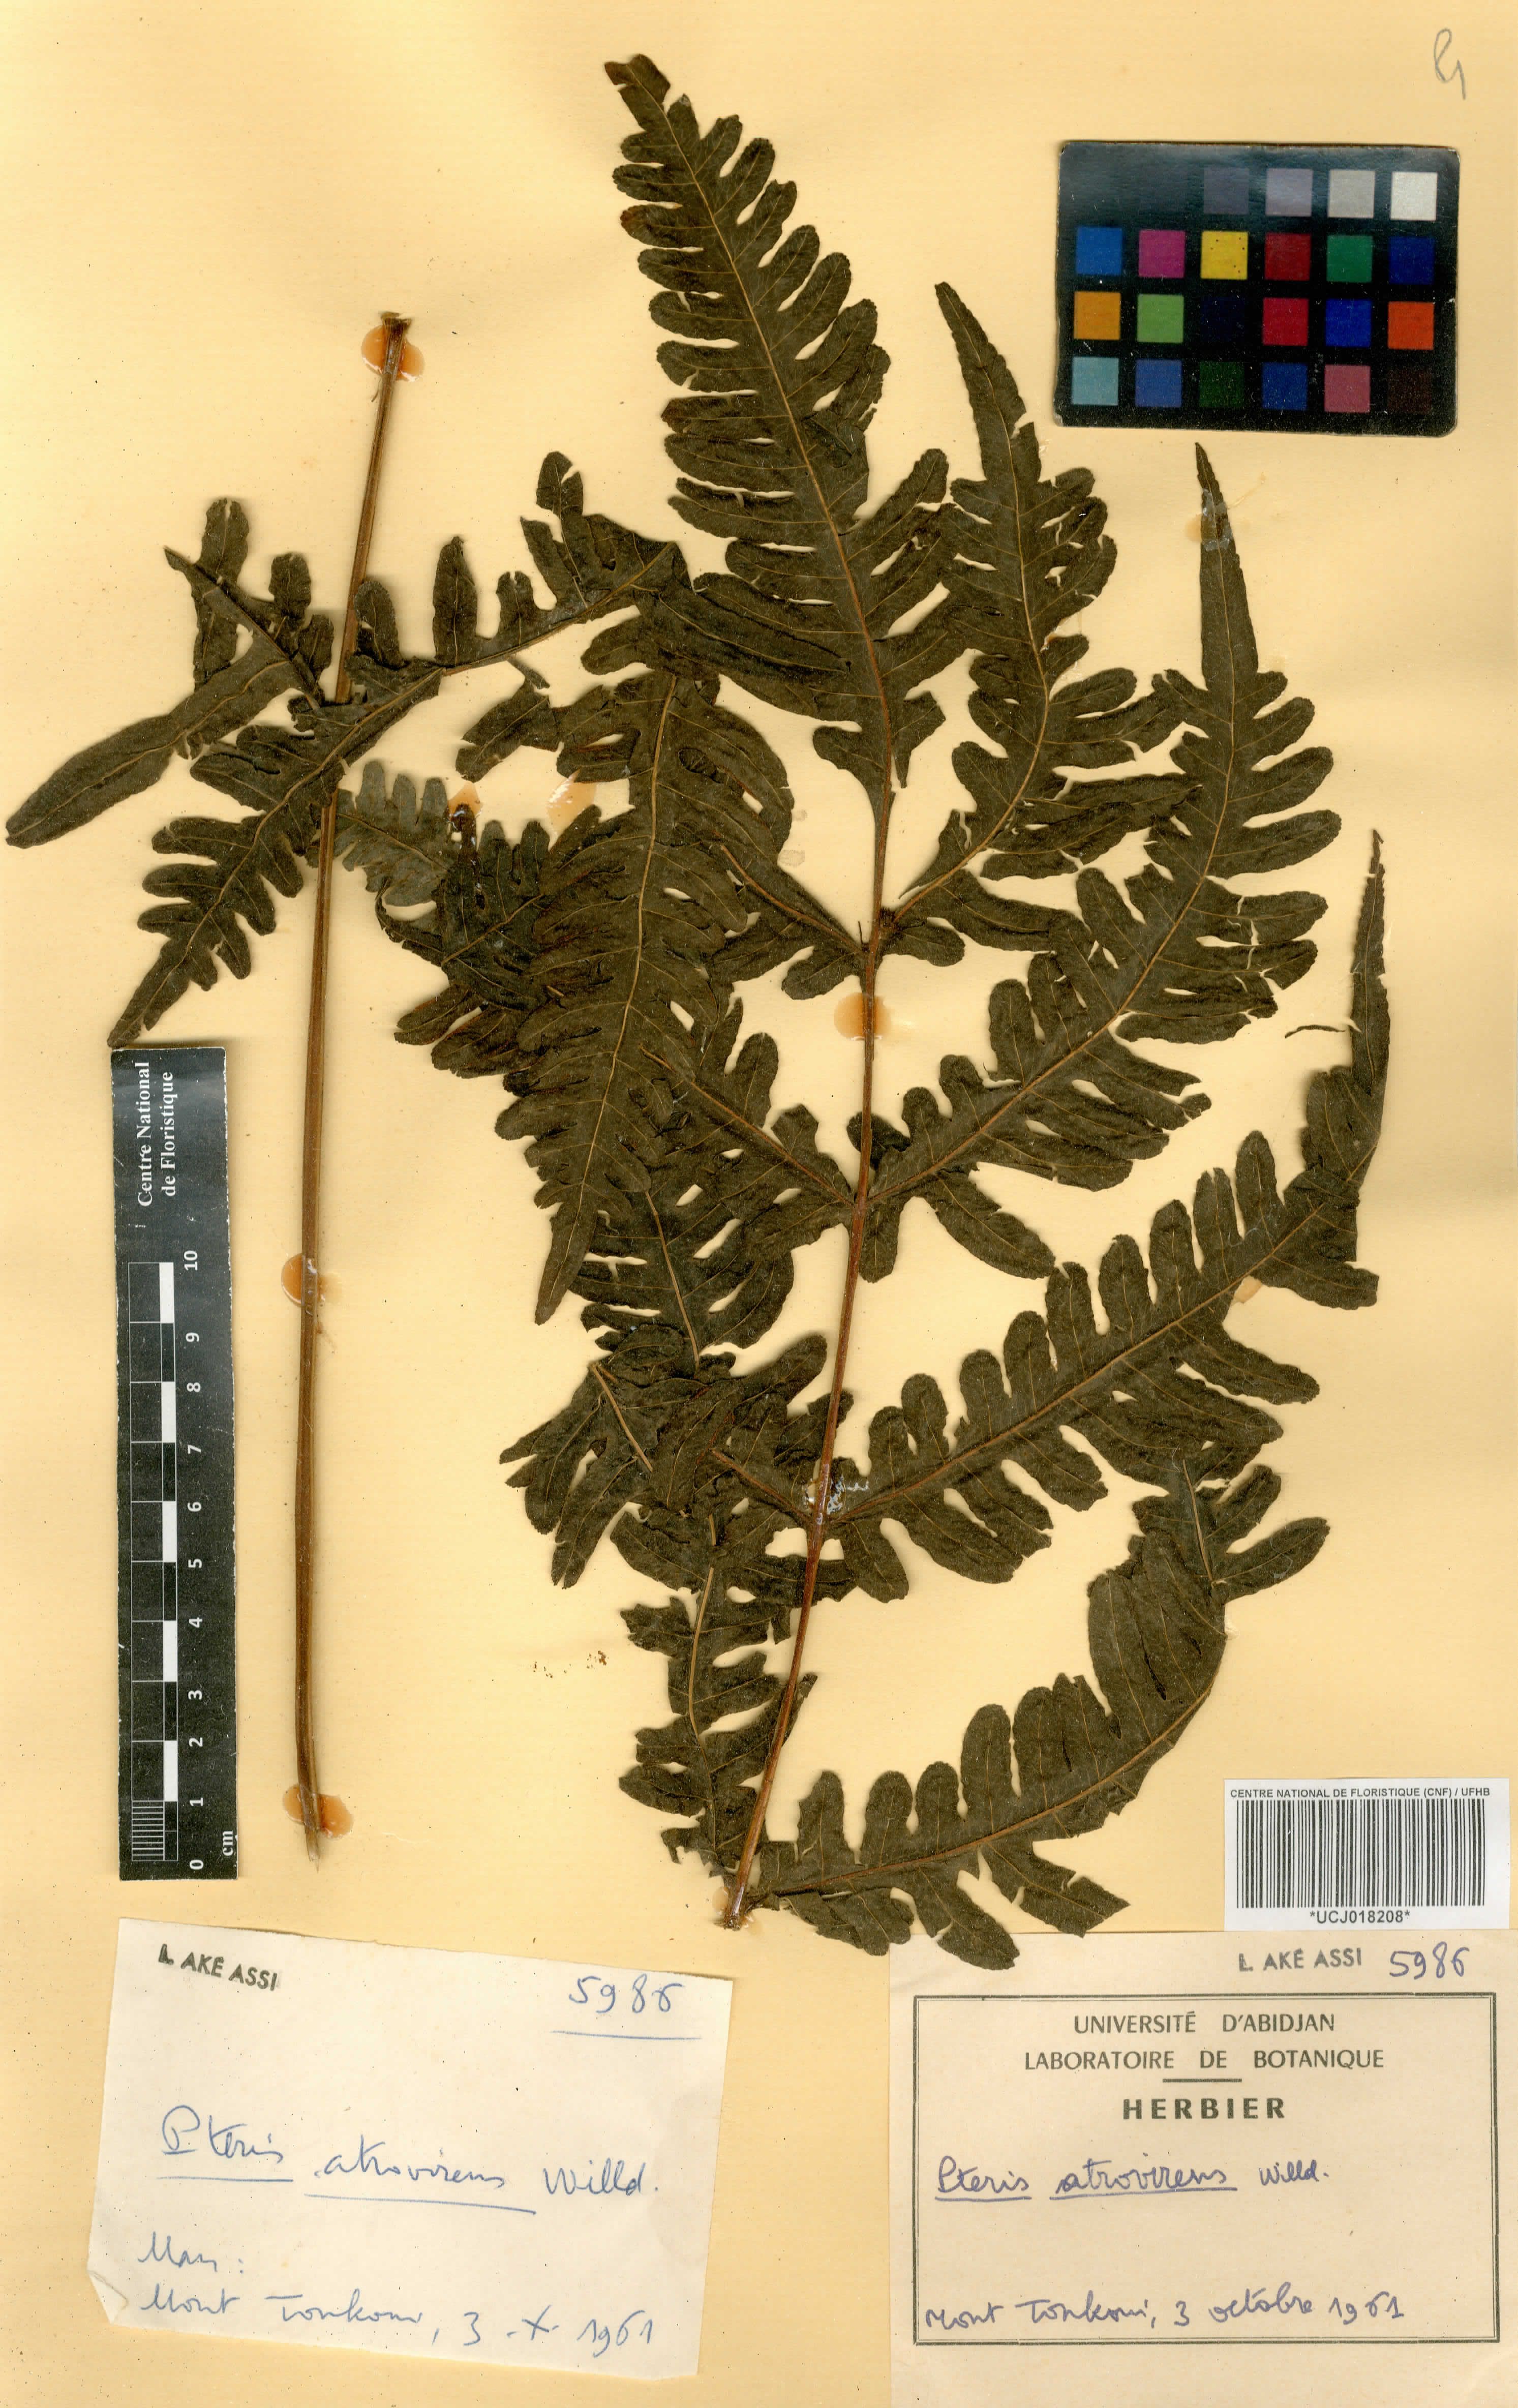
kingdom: Plantae
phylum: Tracheophyta
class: Polypodiopsida
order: Polypodiales
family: Pteridaceae
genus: Pteris
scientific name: Pteris atrovirens
